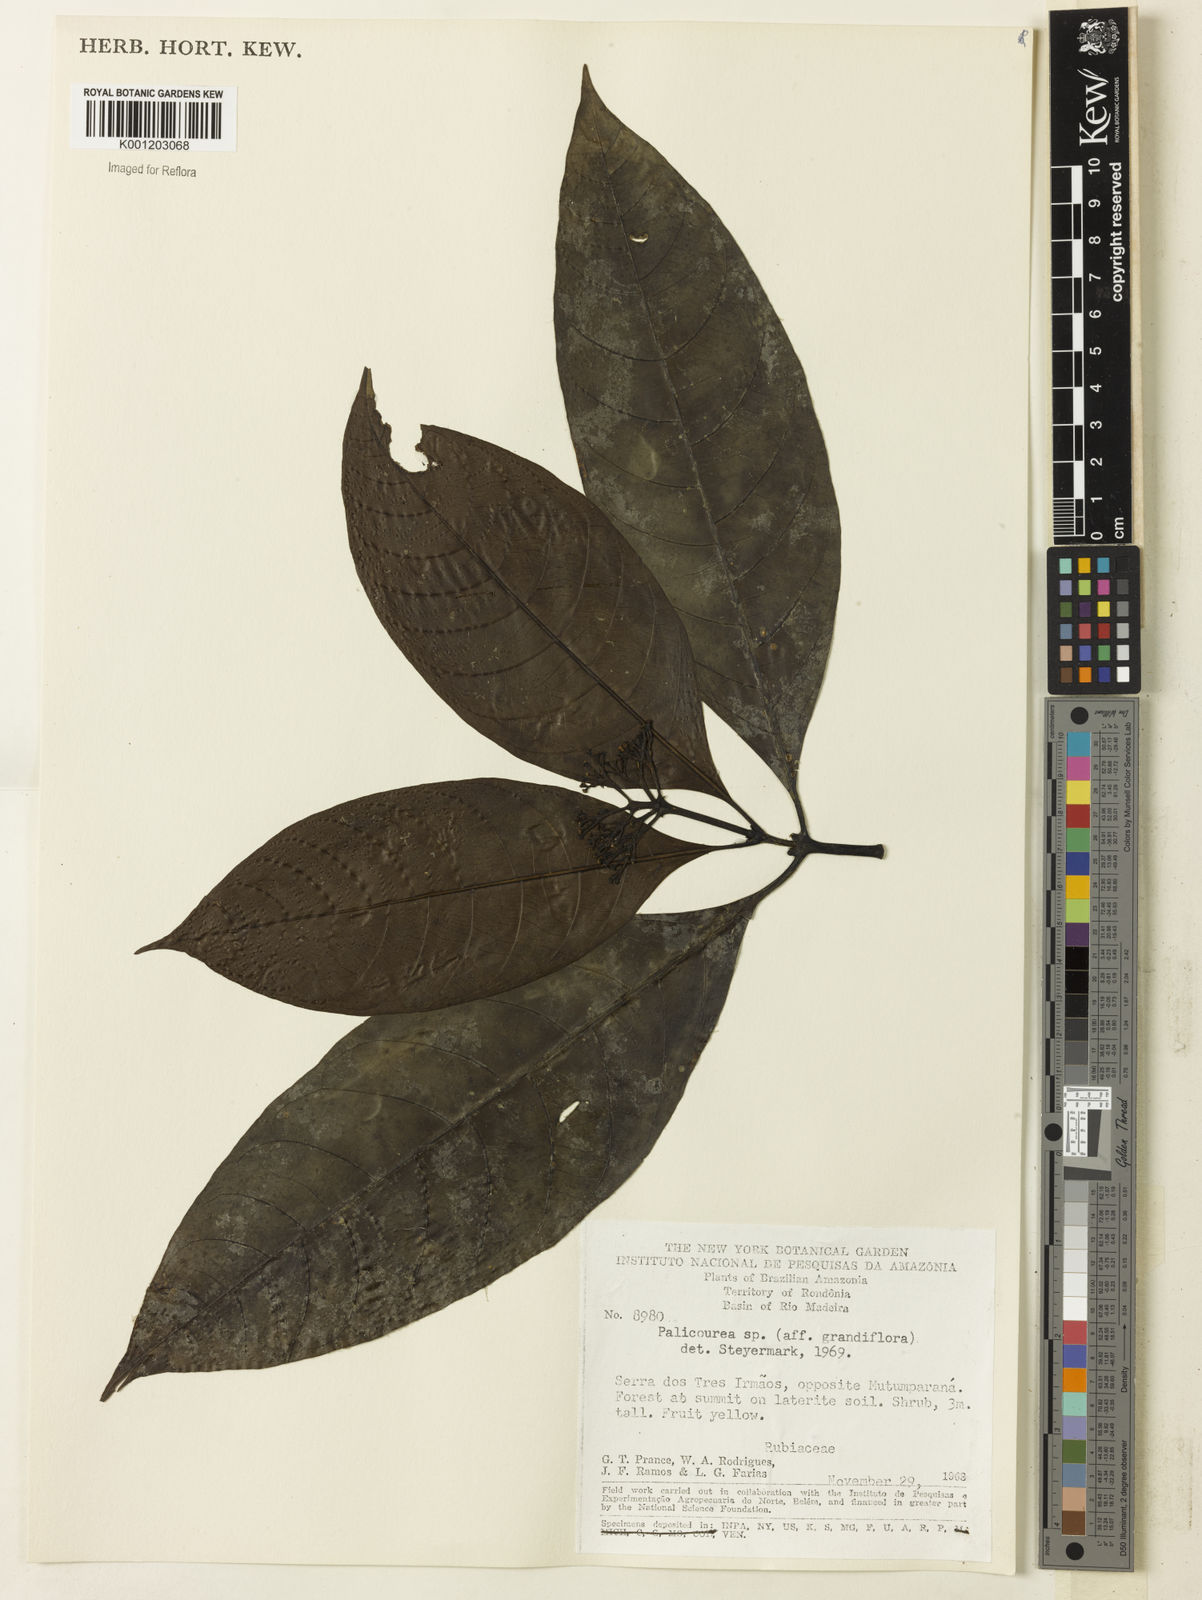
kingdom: Plantae
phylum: Tracheophyta
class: Magnoliopsida
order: Gentianales
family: Rubiaceae
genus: Palicourea
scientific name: Palicourea grandiflora
